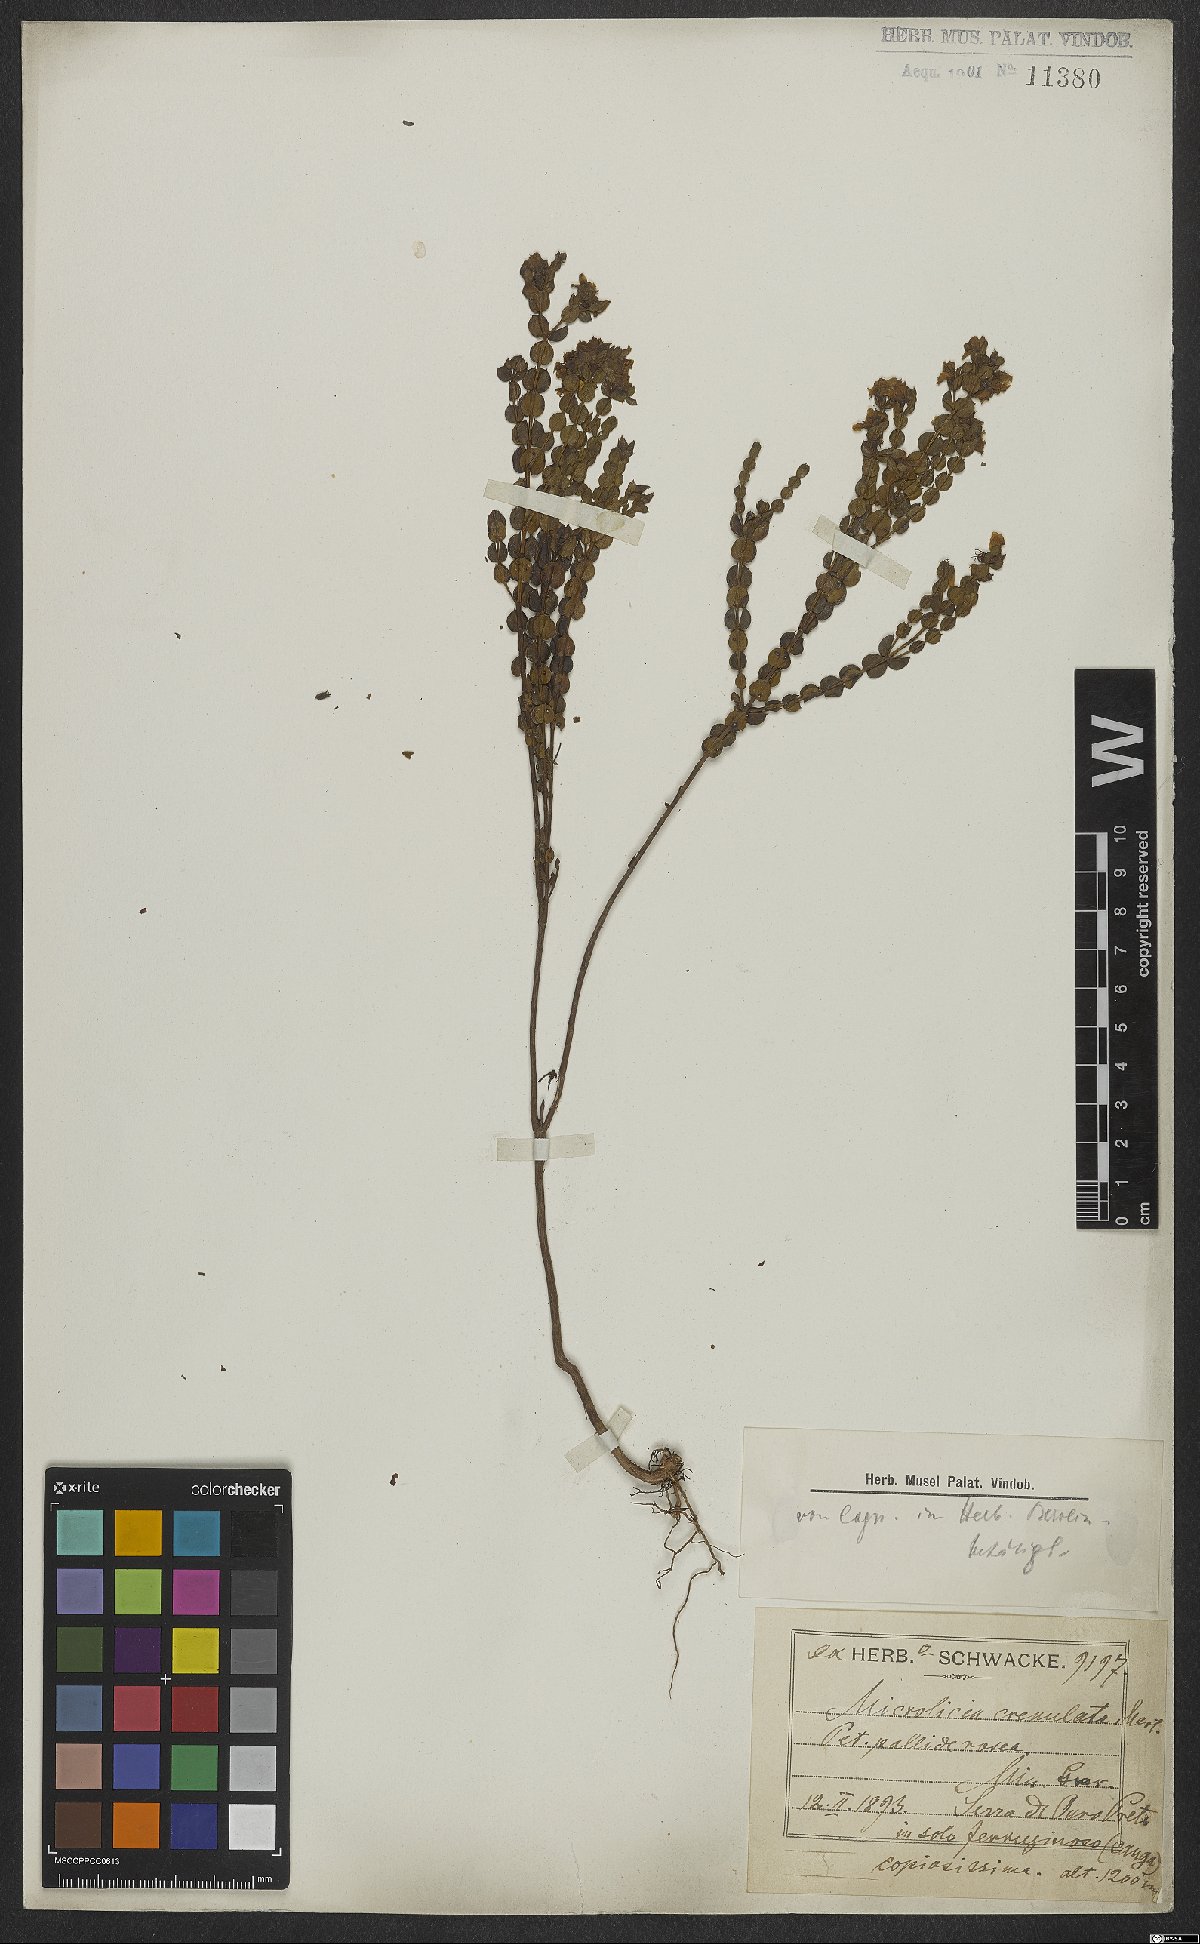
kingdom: Plantae
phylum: Tracheophyta
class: Magnoliopsida
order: Myrtales
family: Melastomataceae
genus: Microlicia
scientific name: Microlicia crenulata
